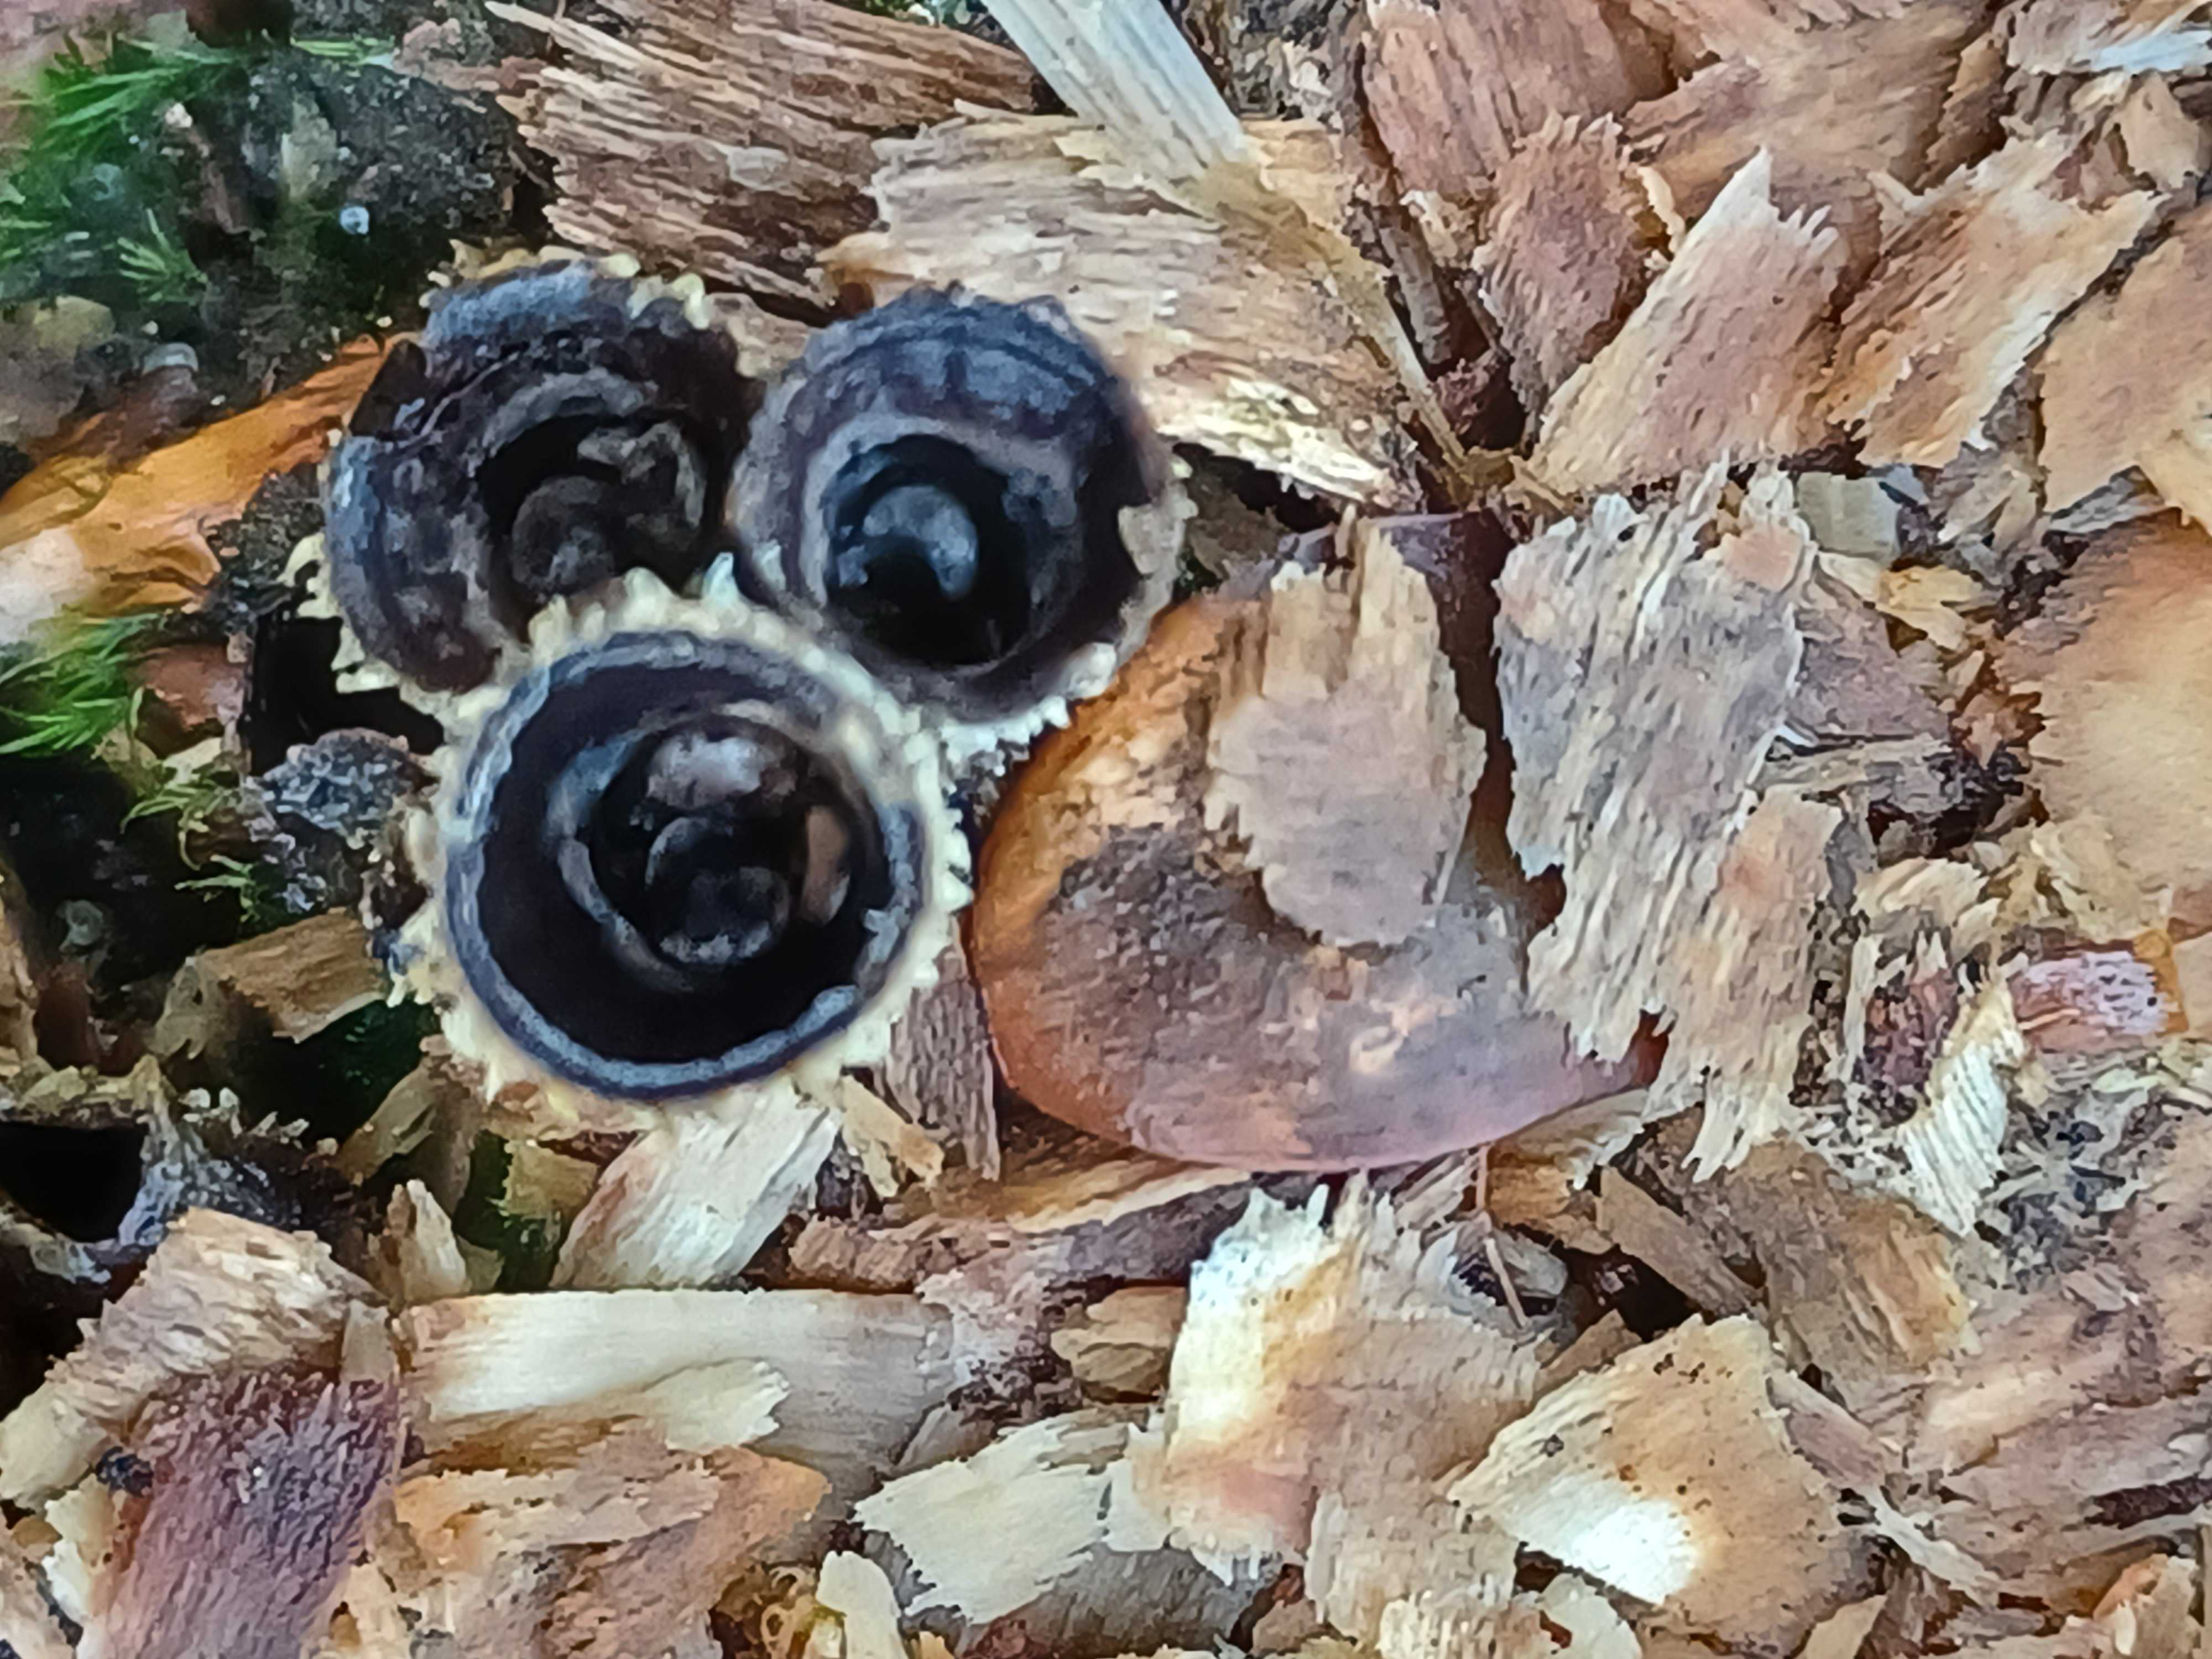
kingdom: Fungi
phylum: Basidiomycota
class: Agaricomycetes
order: Agaricales
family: Agaricaceae
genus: Cyathus
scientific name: Cyathus striatus
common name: stribet redesvamp
